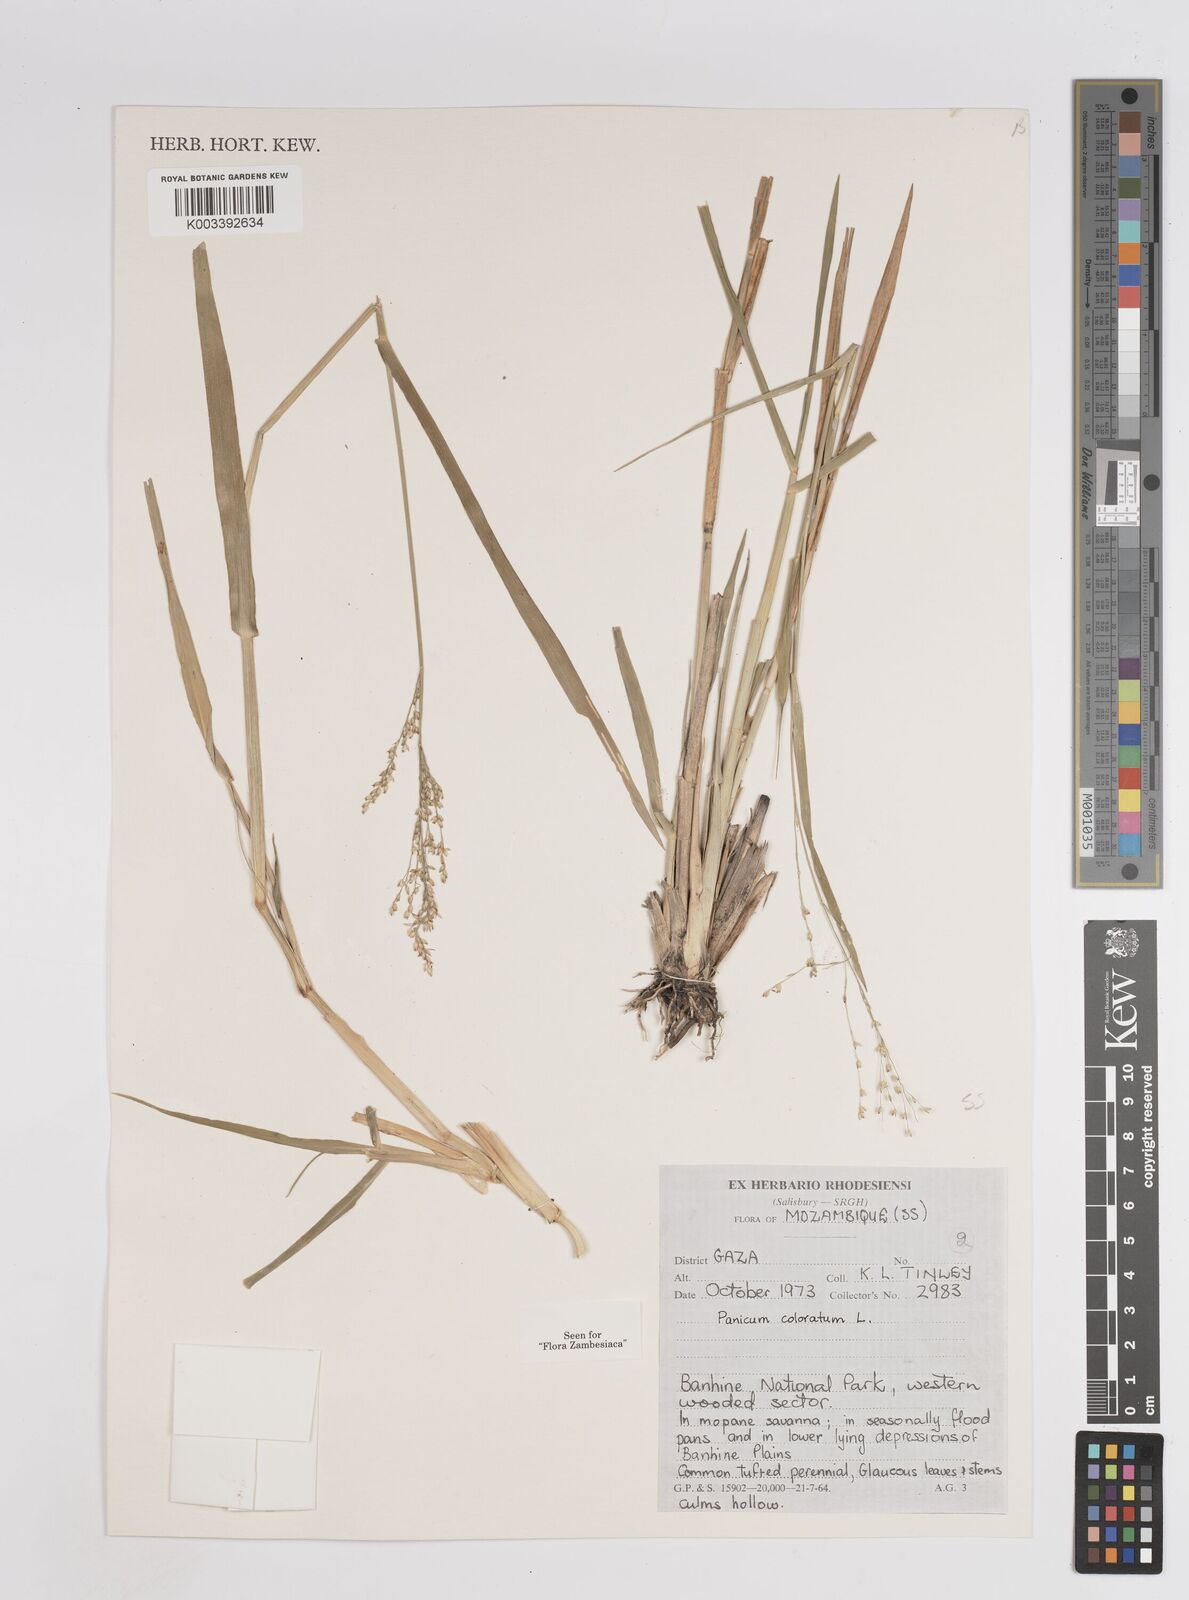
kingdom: Plantae
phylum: Tracheophyta
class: Liliopsida
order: Poales
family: Poaceae
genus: Panicum
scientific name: Panicum
